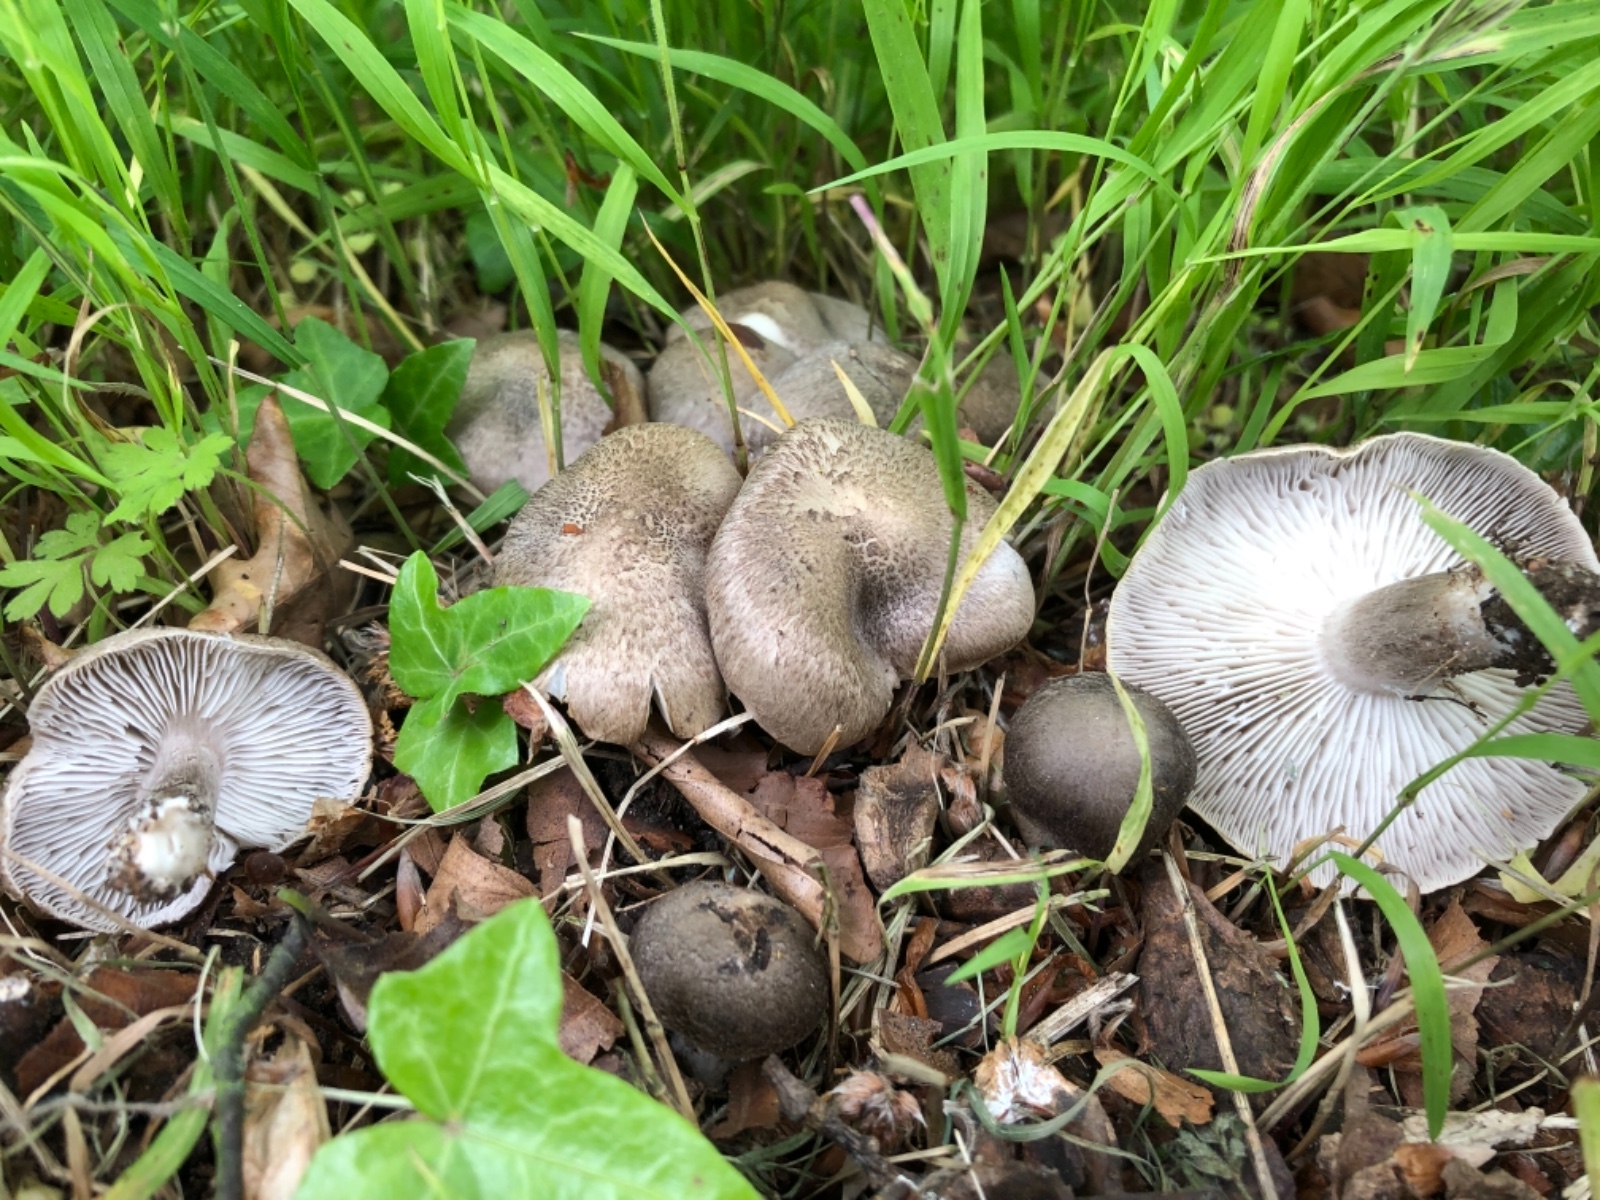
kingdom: Fungi
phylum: Basidiomycota
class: Agaricomycetes
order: Agaricales
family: Tricholomataceae
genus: Tricholoma
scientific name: Tricholoma scalpturatum
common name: gulplettet ridderhat
